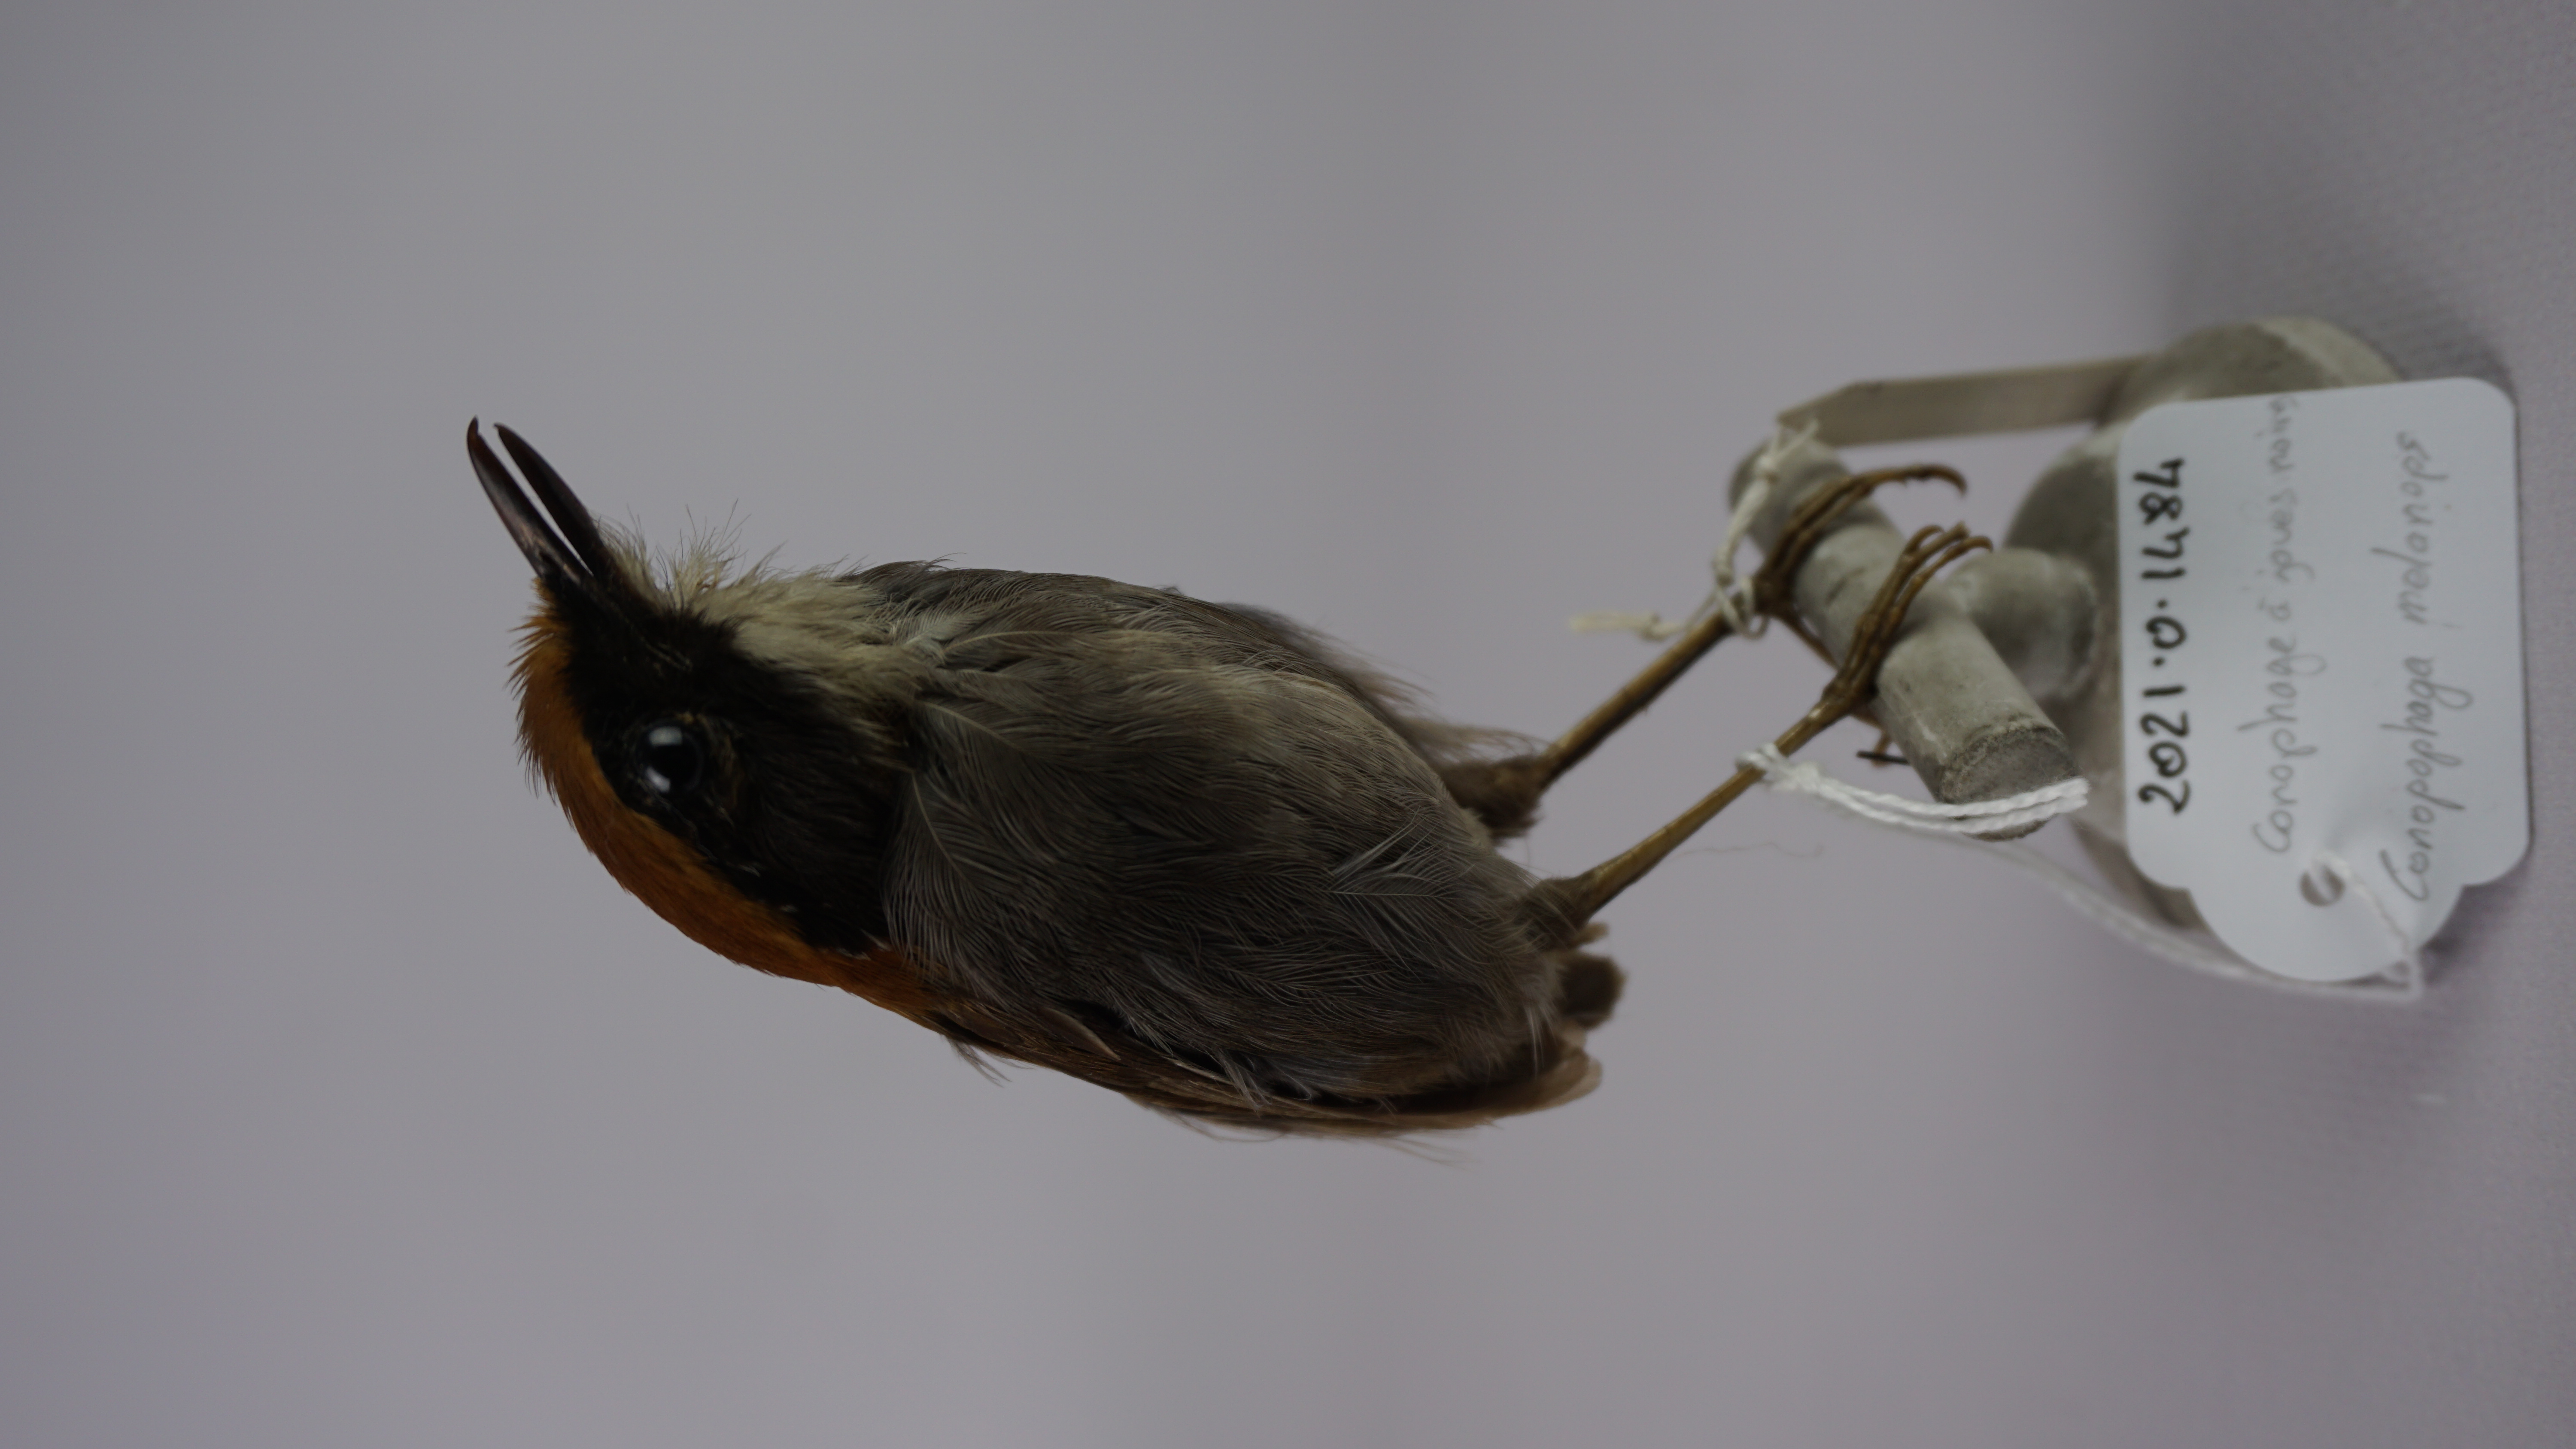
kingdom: Animalia
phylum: Chordata
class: Aves
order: Passeriformes
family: Conopophagidae
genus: Conopophaga
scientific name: Conopophaga melanops
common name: Black-cheeked gnateater
